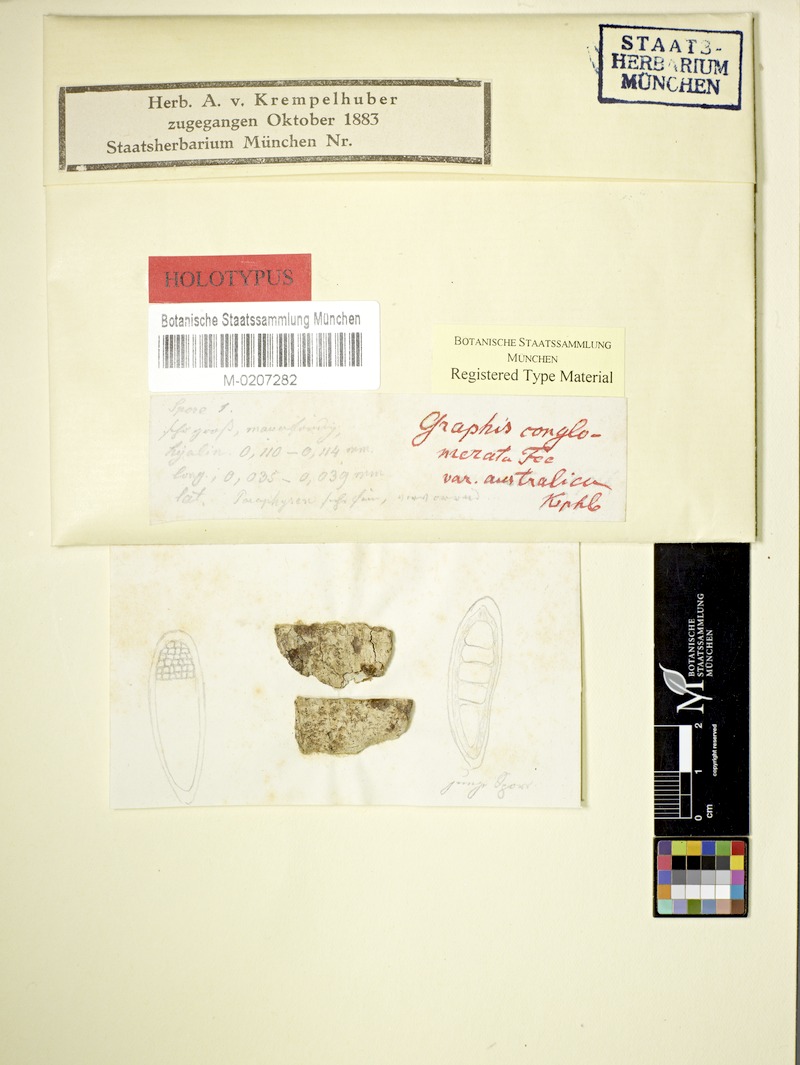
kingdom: Fungi
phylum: Ascomycota
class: Lecanoromycetes
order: Ostropales
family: Graphidaceae
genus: Allographa
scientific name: Allographa cinerea
